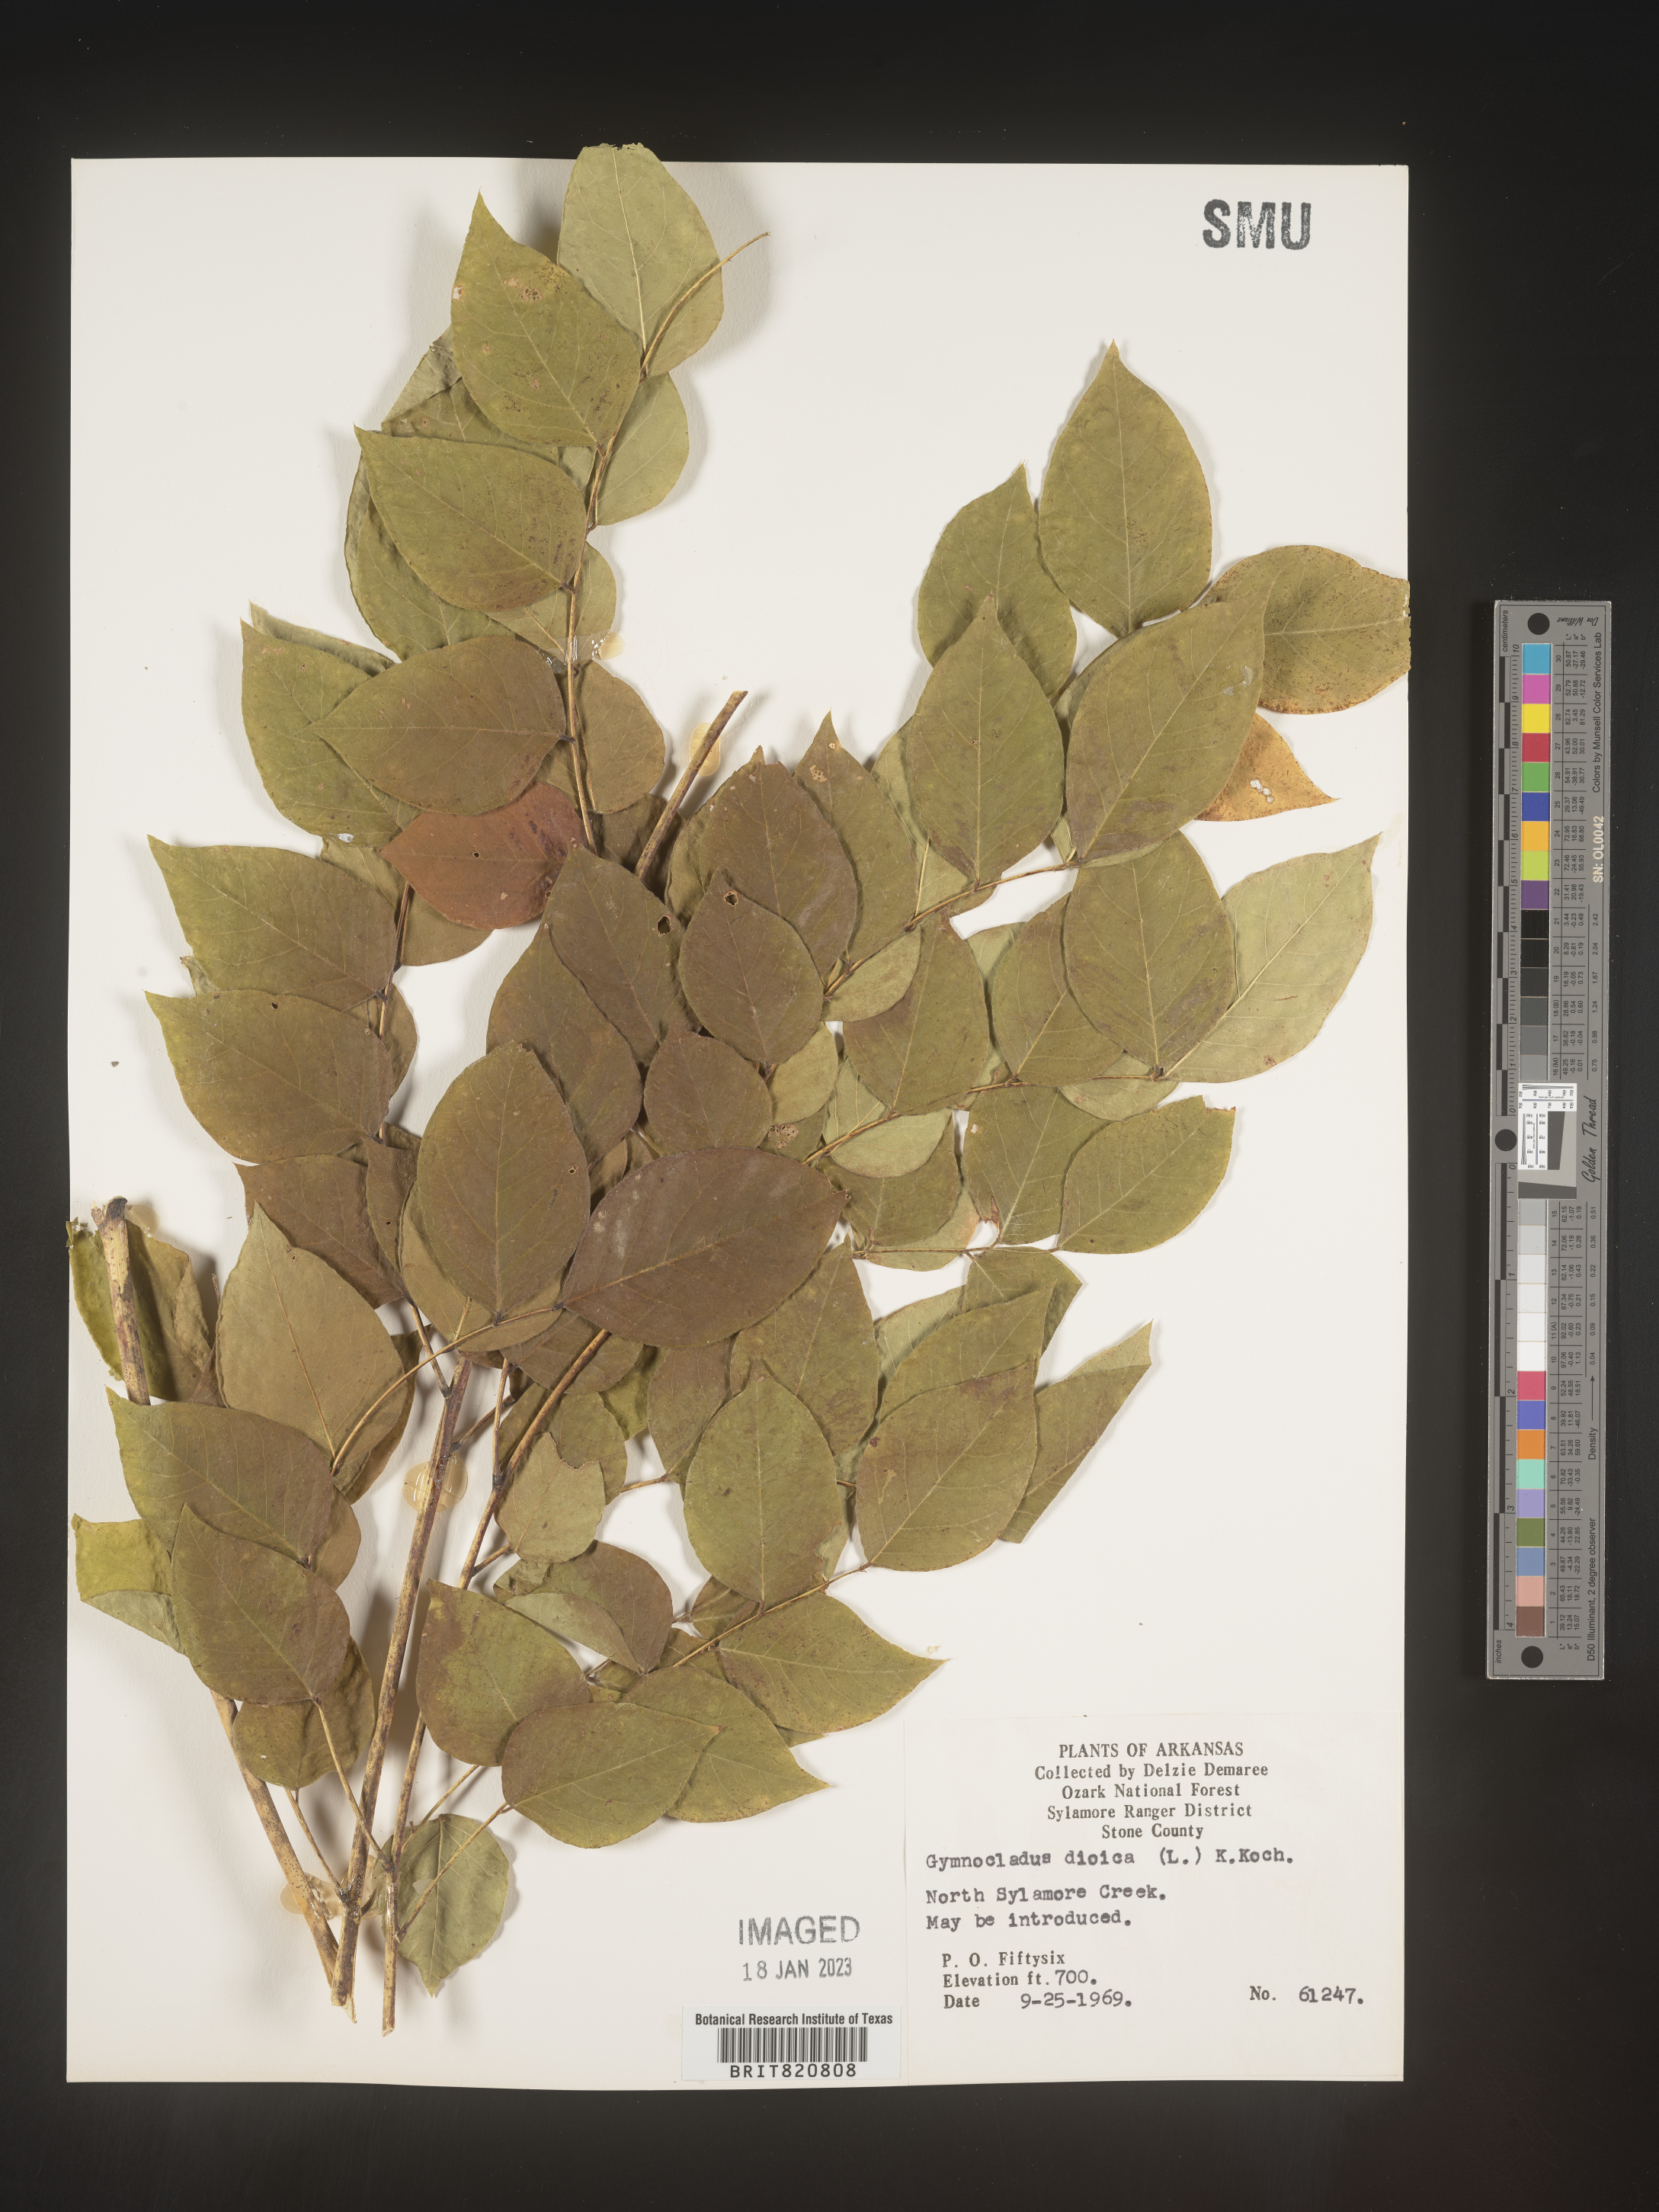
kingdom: Plantae
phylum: Tracheophyta
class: Magnoliopsida
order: Fabales
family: Fabaceae
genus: Gymnocladus
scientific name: Gymnocladus
